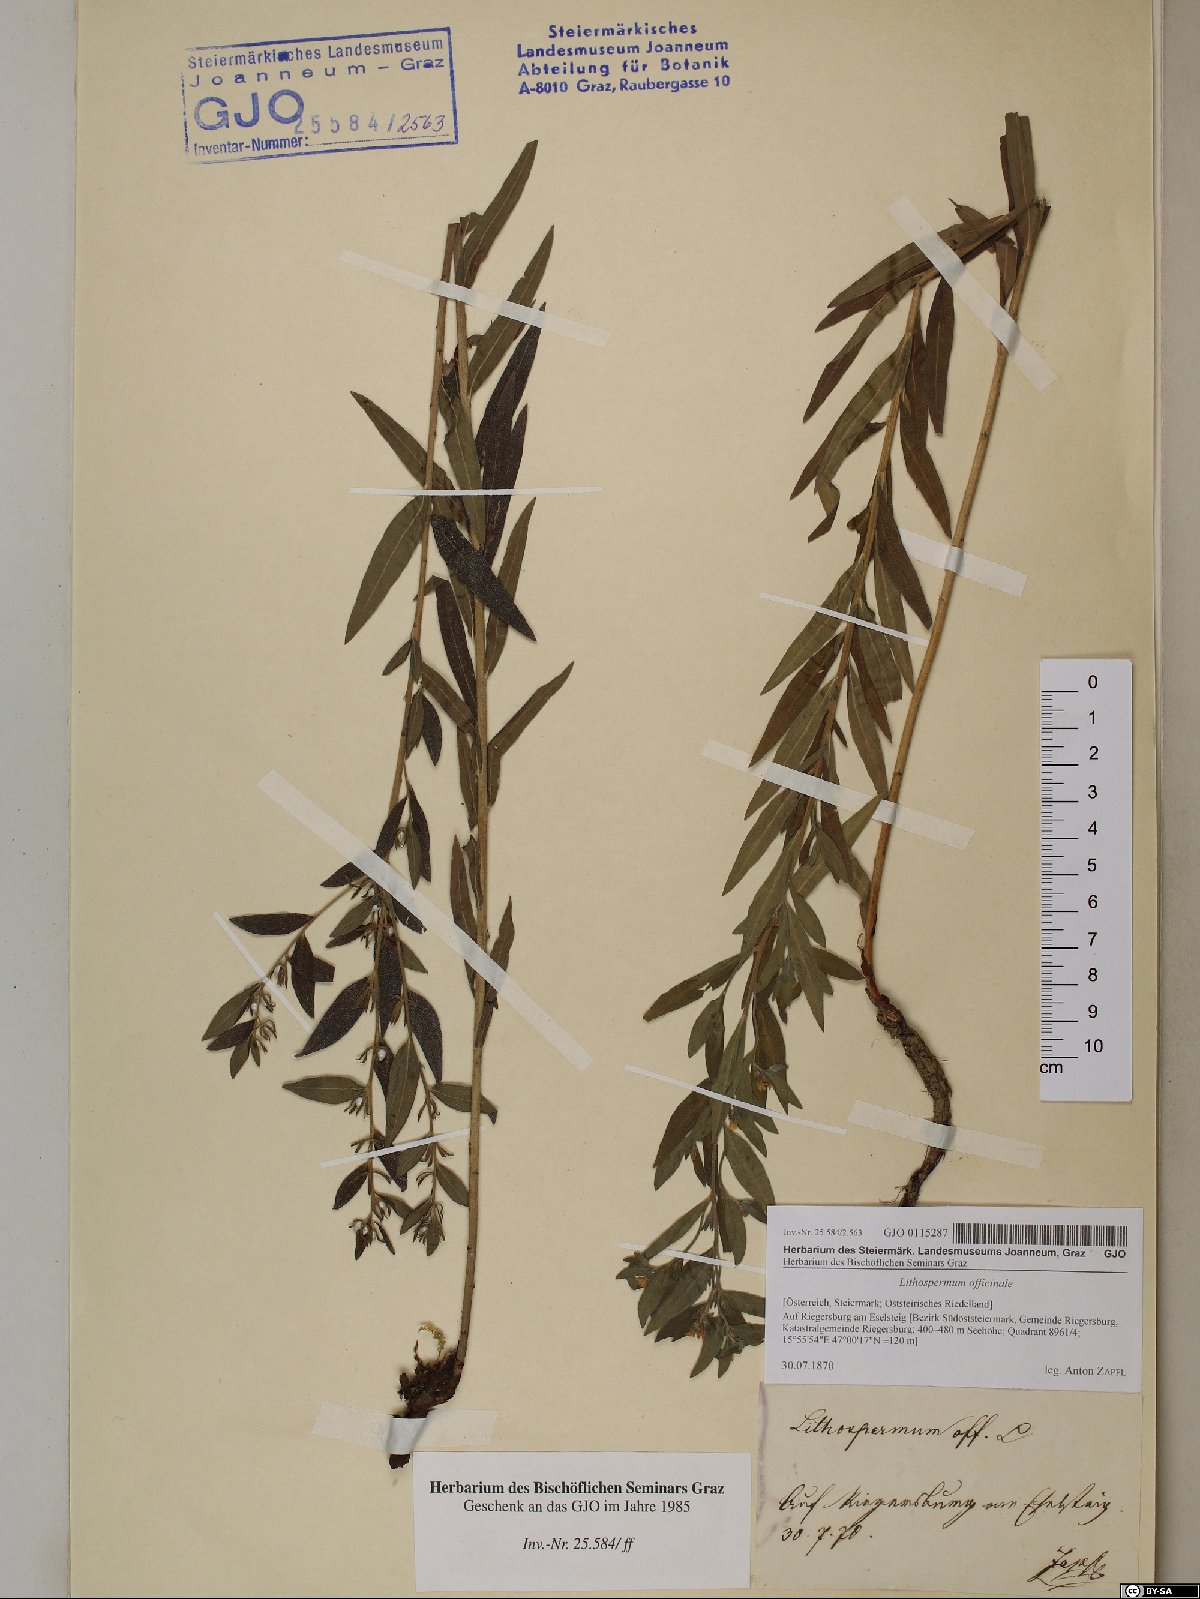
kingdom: Plantae
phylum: Tracheophyta
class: Magnoliopsida
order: Boraginales
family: Boraginaceae
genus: Lithospermum
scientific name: Lithospermum officinale
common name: Common gromwell
